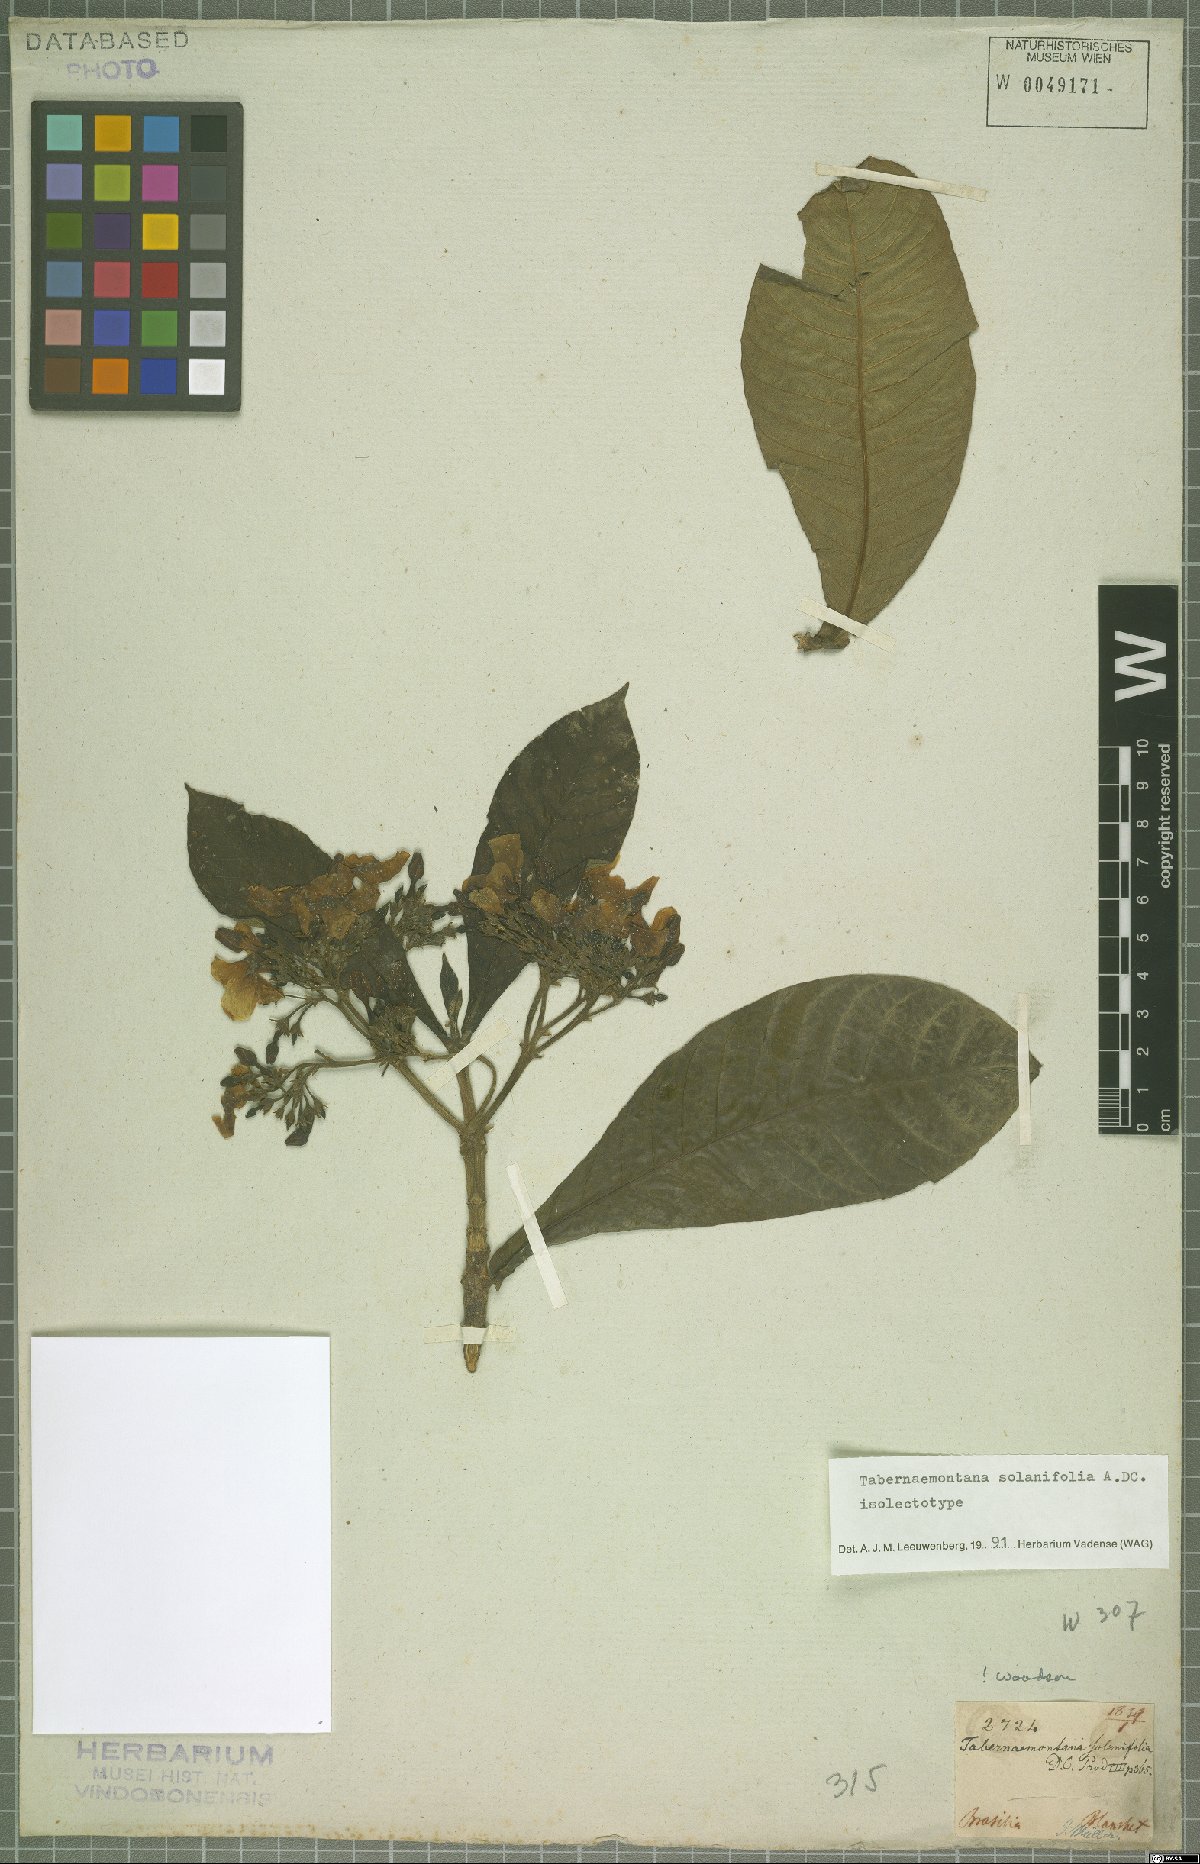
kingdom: Plantae
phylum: Tracheophyta
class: Magnoliopsida
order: Gentianales
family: Apocynaceae
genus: Tabernaemontana
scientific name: Tabernaemontana solanifolia
